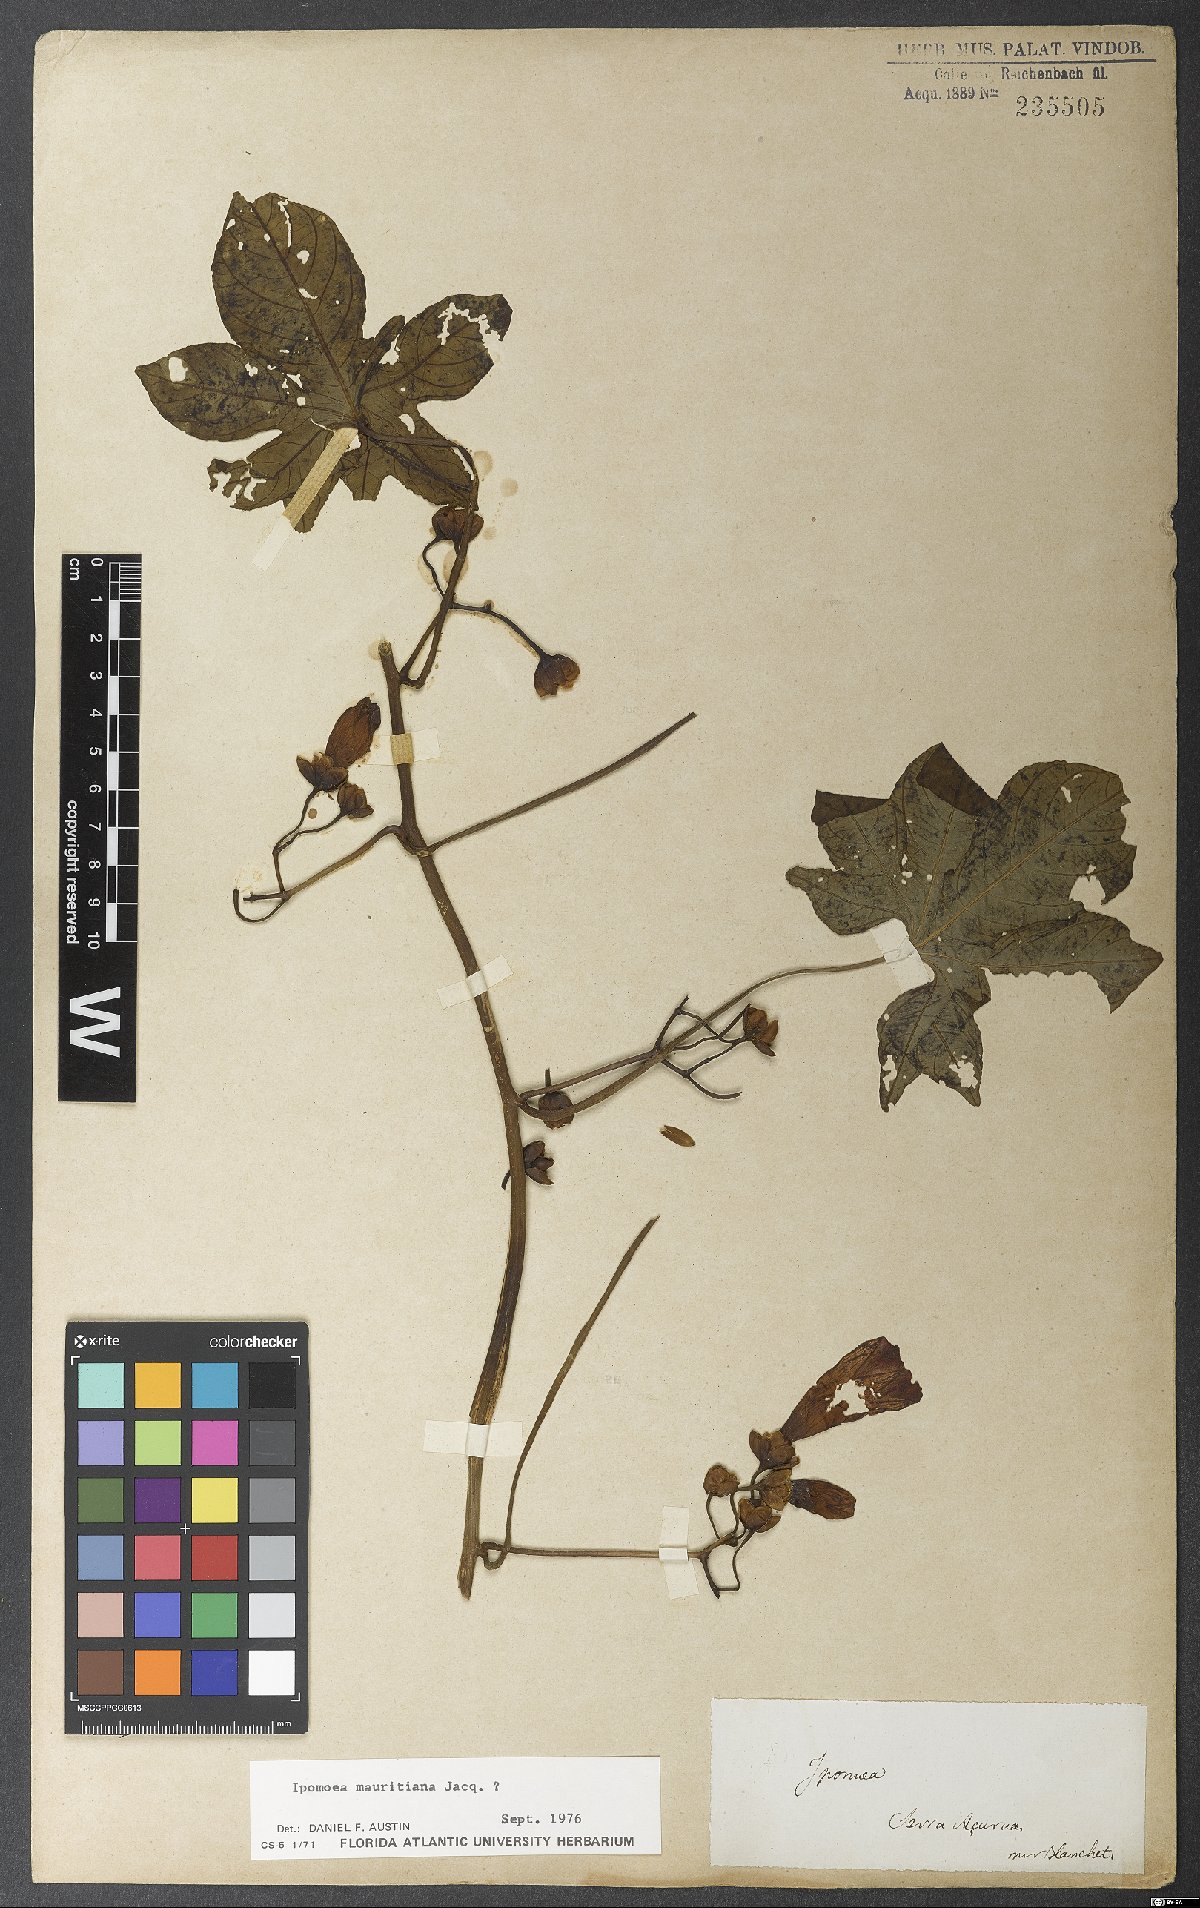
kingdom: Plantae
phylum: Tracheophyta
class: Magnoliopsida
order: Solanales
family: Convolvulaceae
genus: Ipomoea
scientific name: Ipomoea mauritiana
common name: Mauritanian convolvulus
